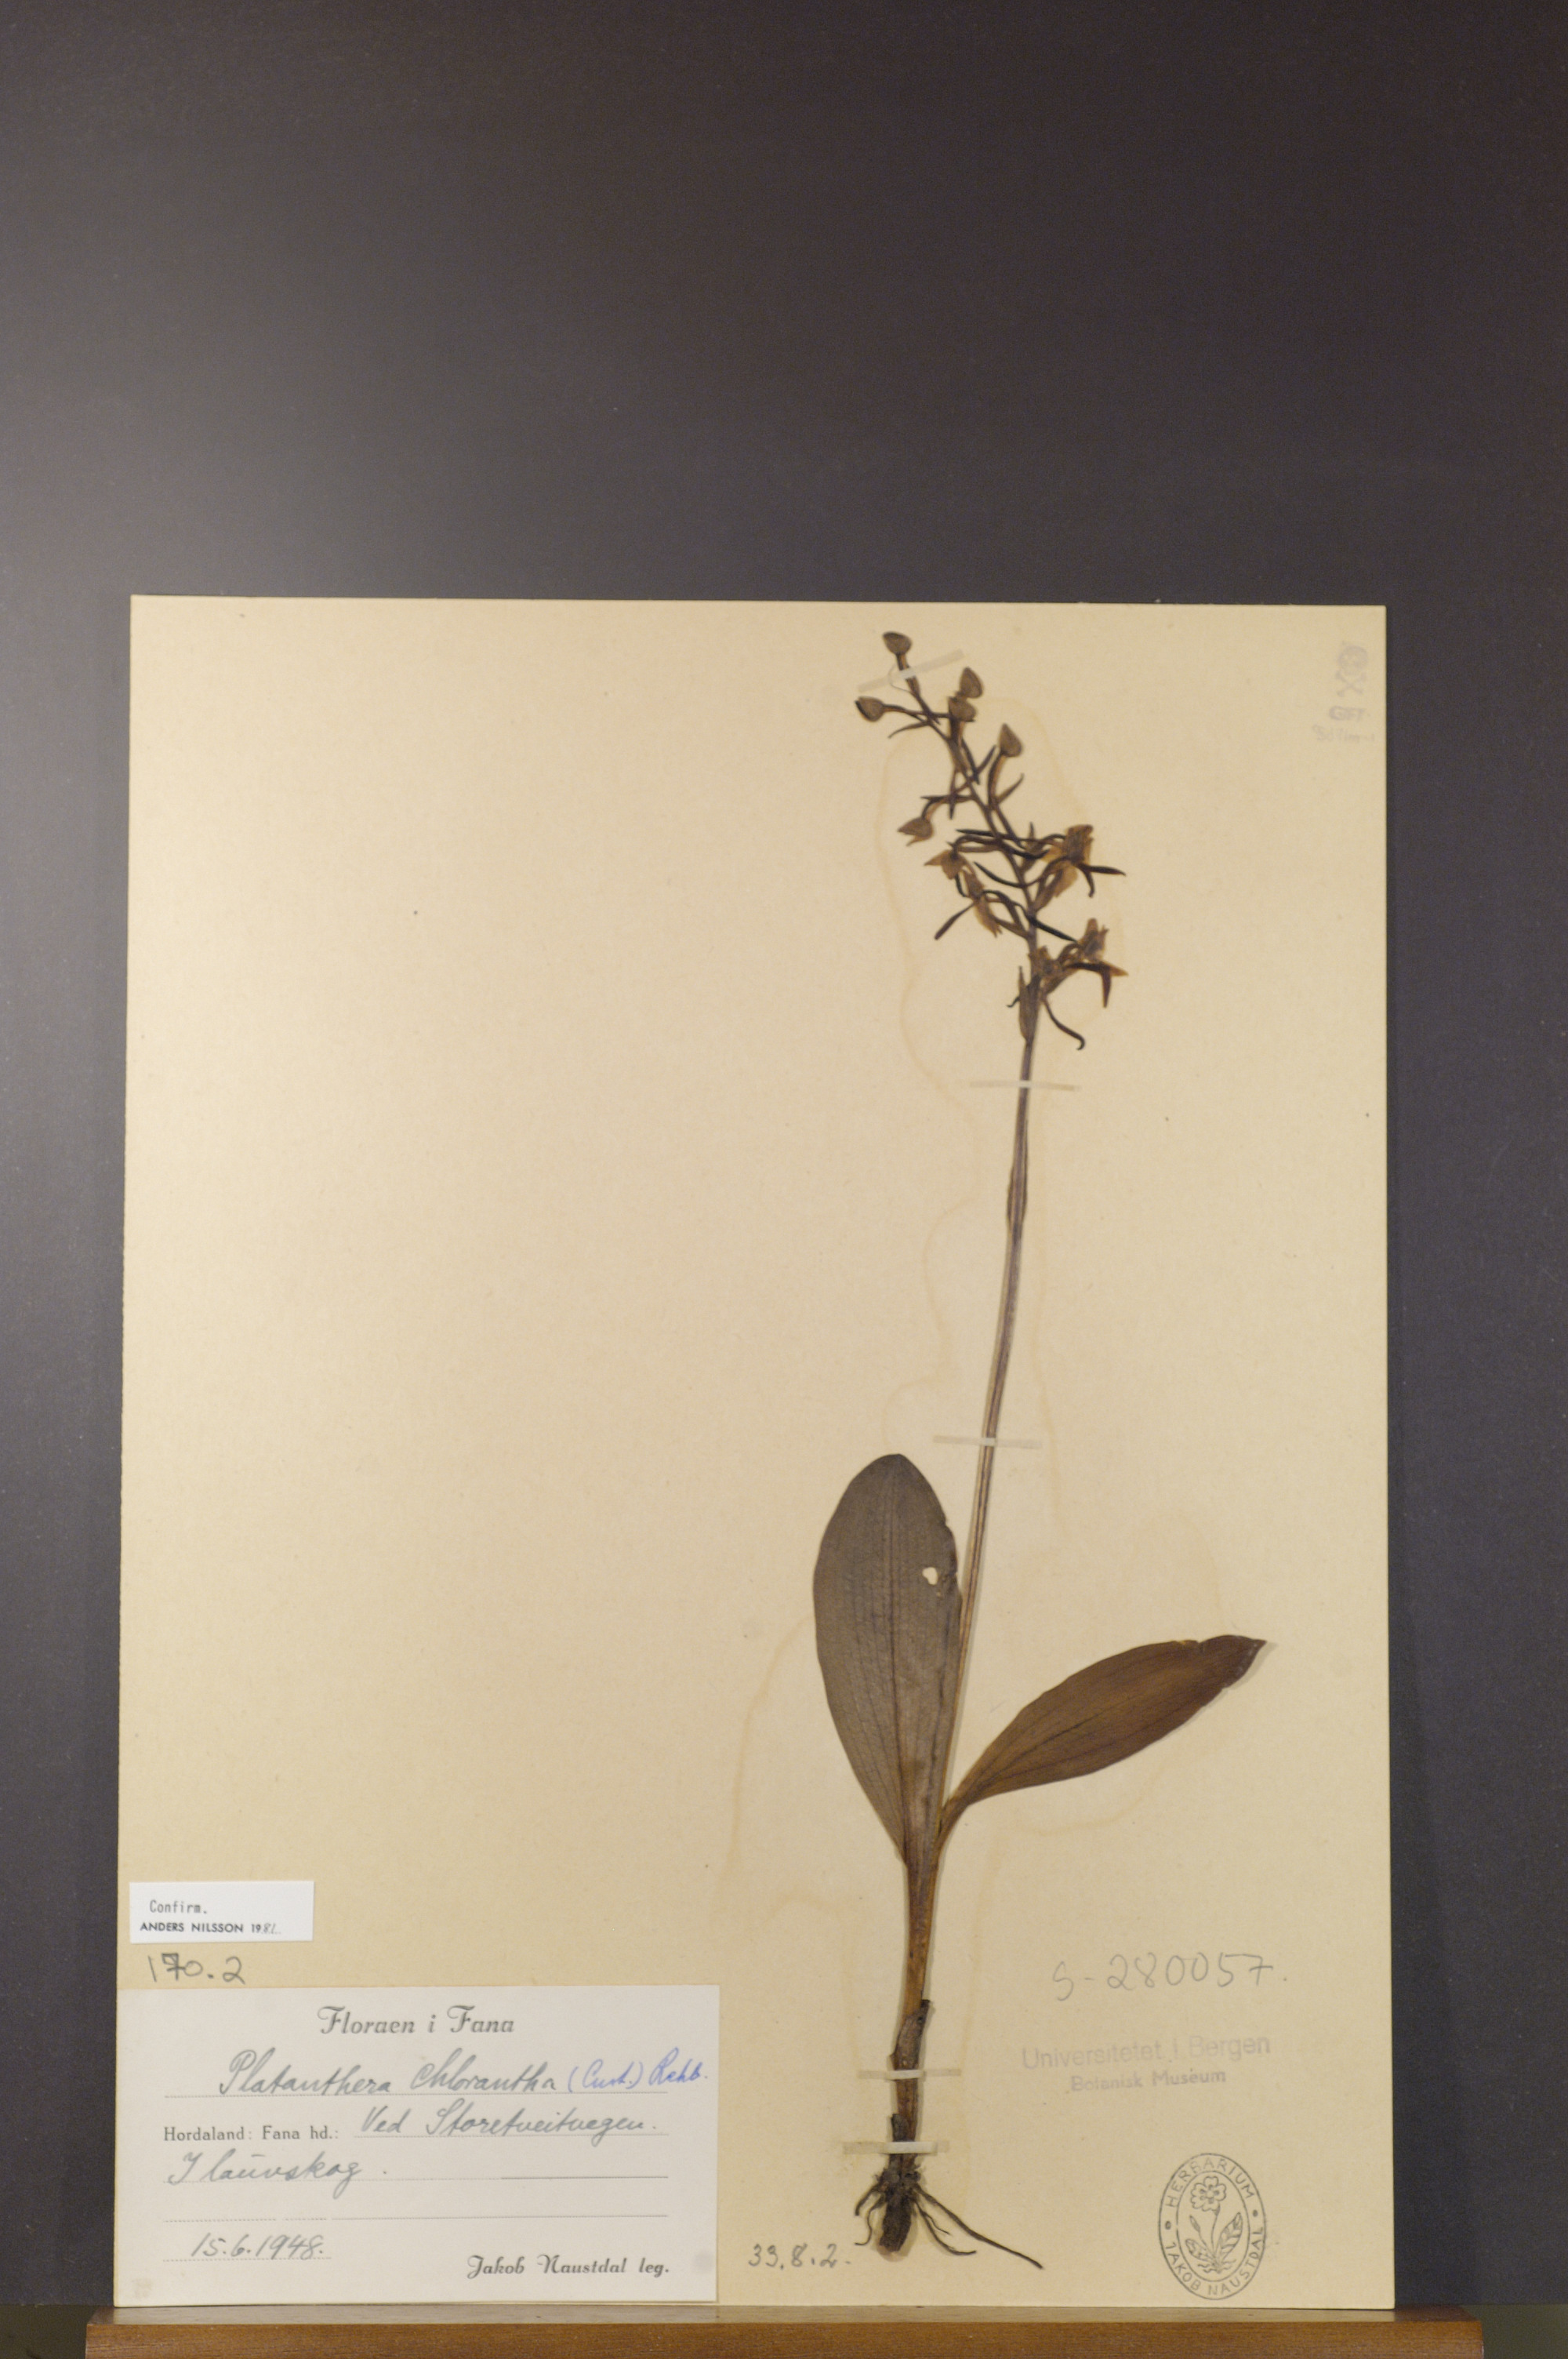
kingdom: Plantae
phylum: Tracheophyta
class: Liliopsida
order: Asparagales
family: Orchidaceae
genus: Platanthera
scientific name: Platanthera chlorantha
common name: Greater butterfly-orchid
